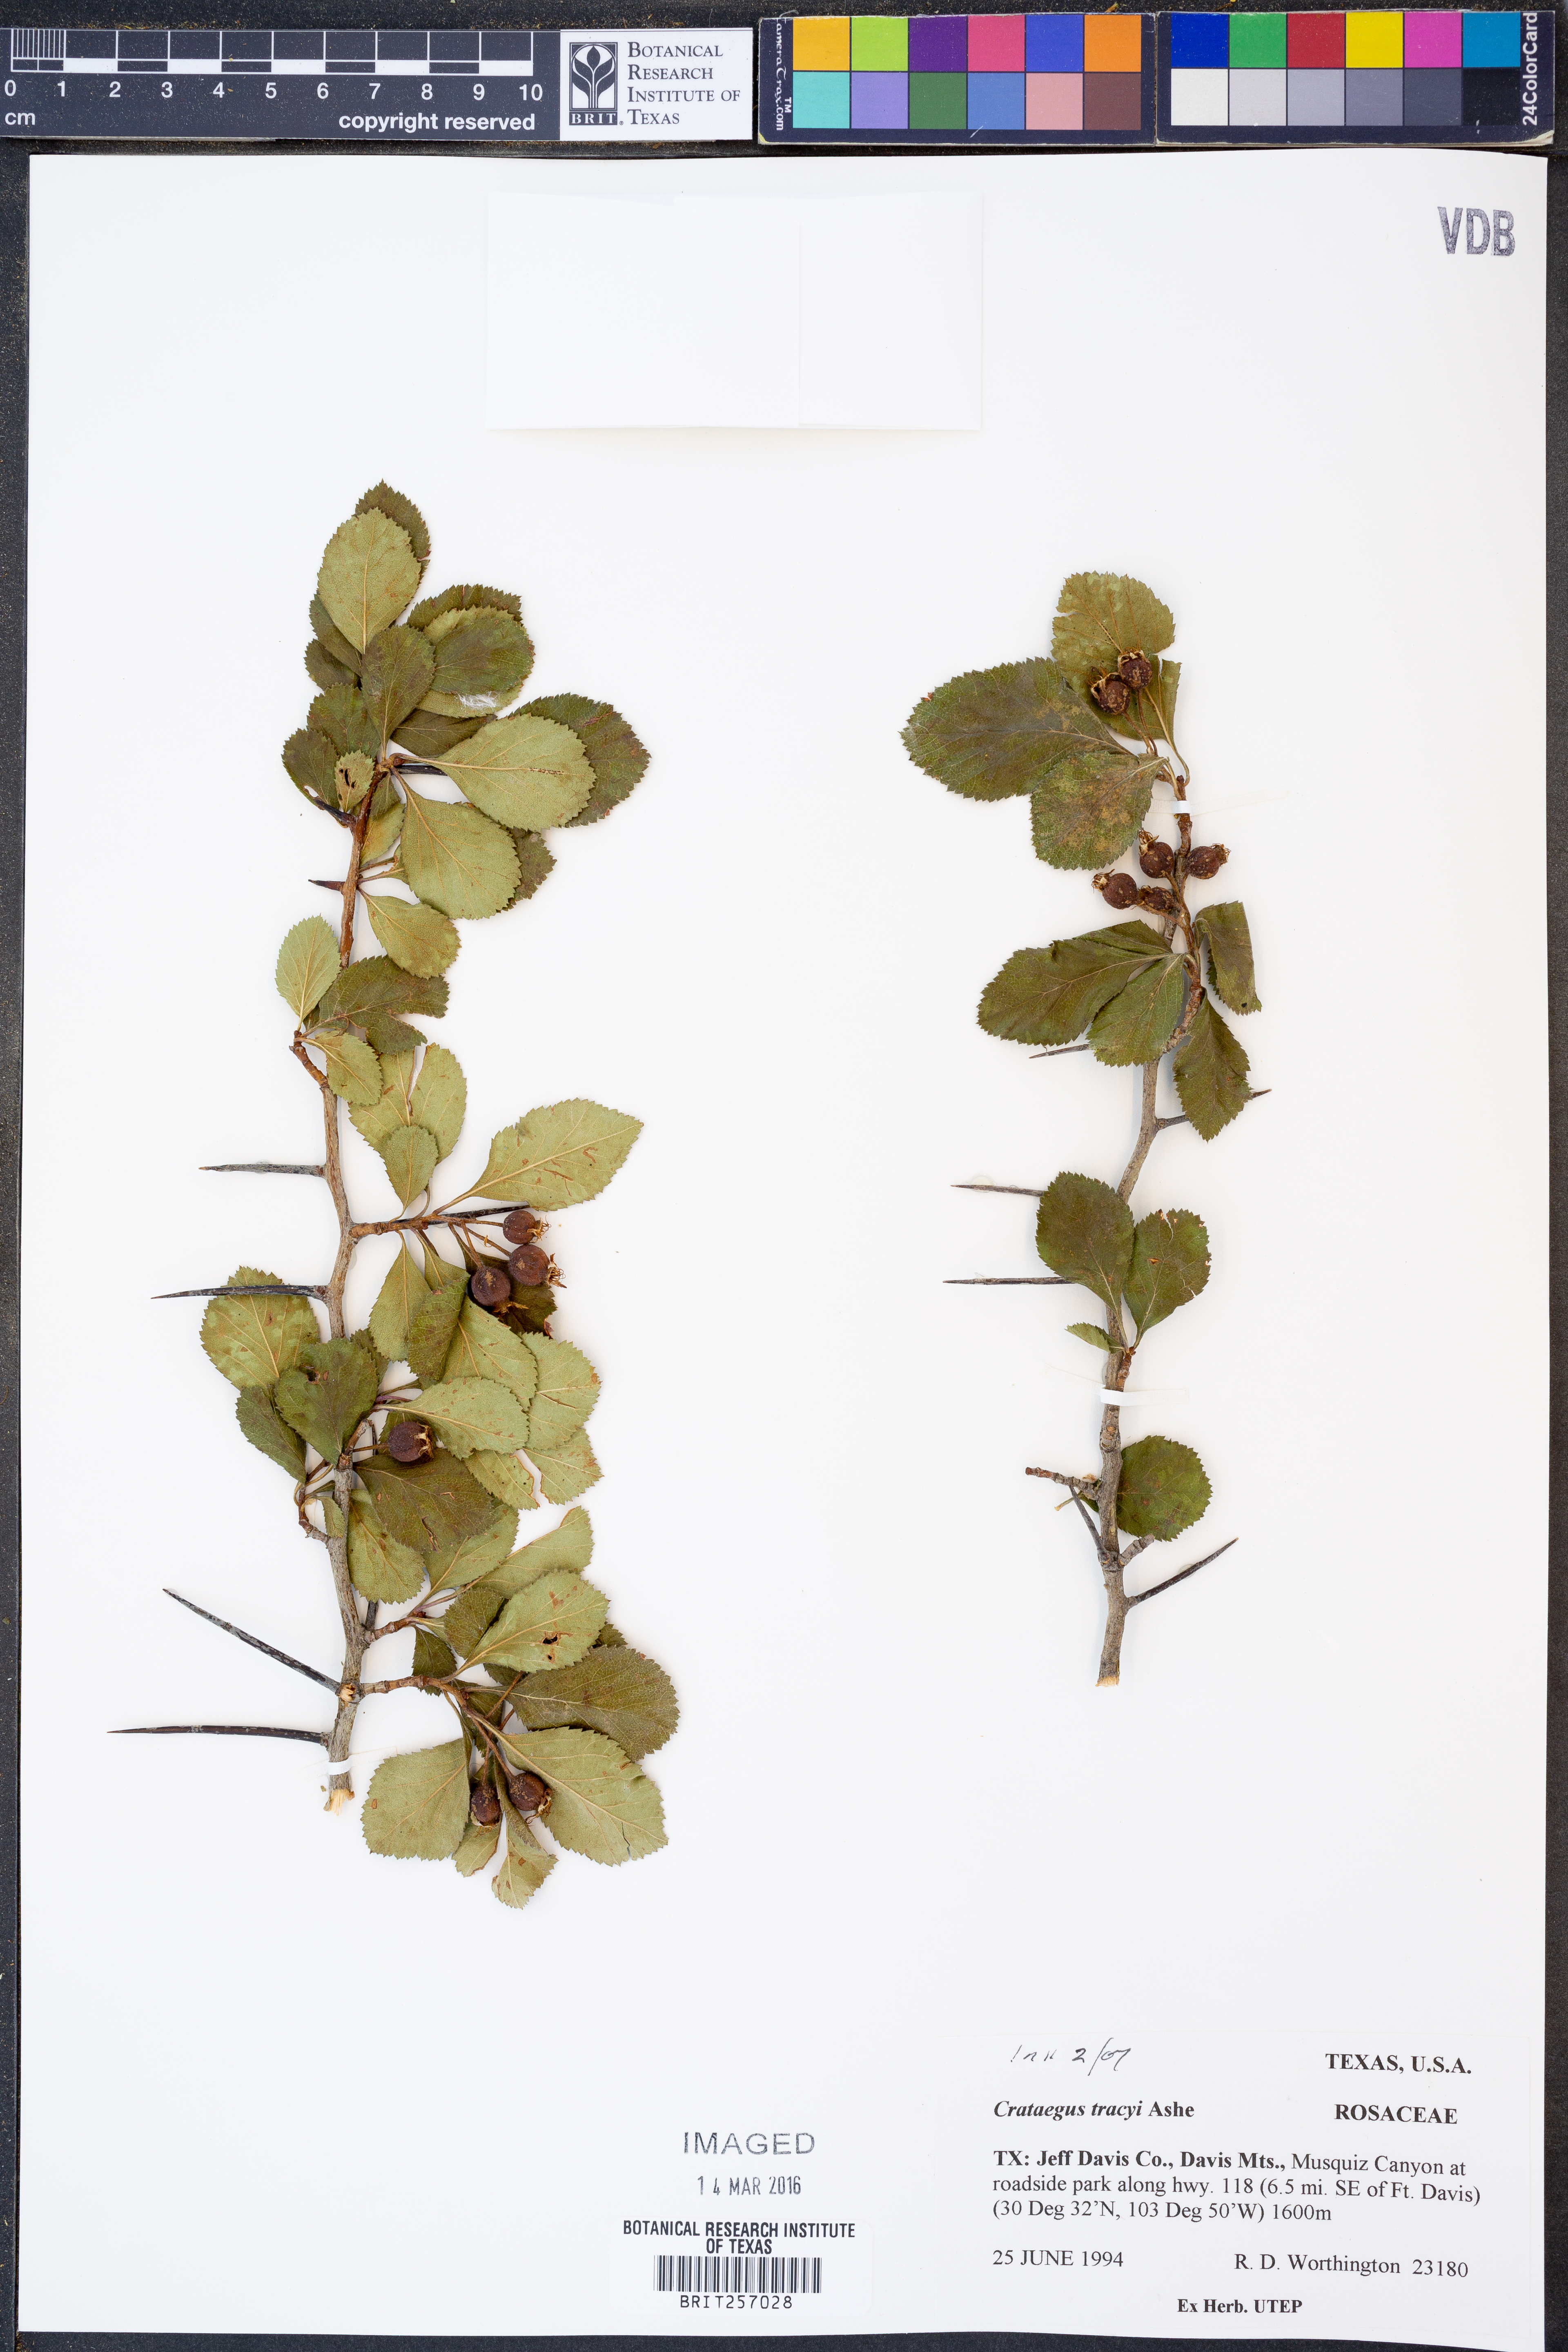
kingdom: Plantae
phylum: Tracheophyta
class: Magnoliopsida
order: Rosales
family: Rosaceae
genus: Crataegus
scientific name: Crataegus tracyi
